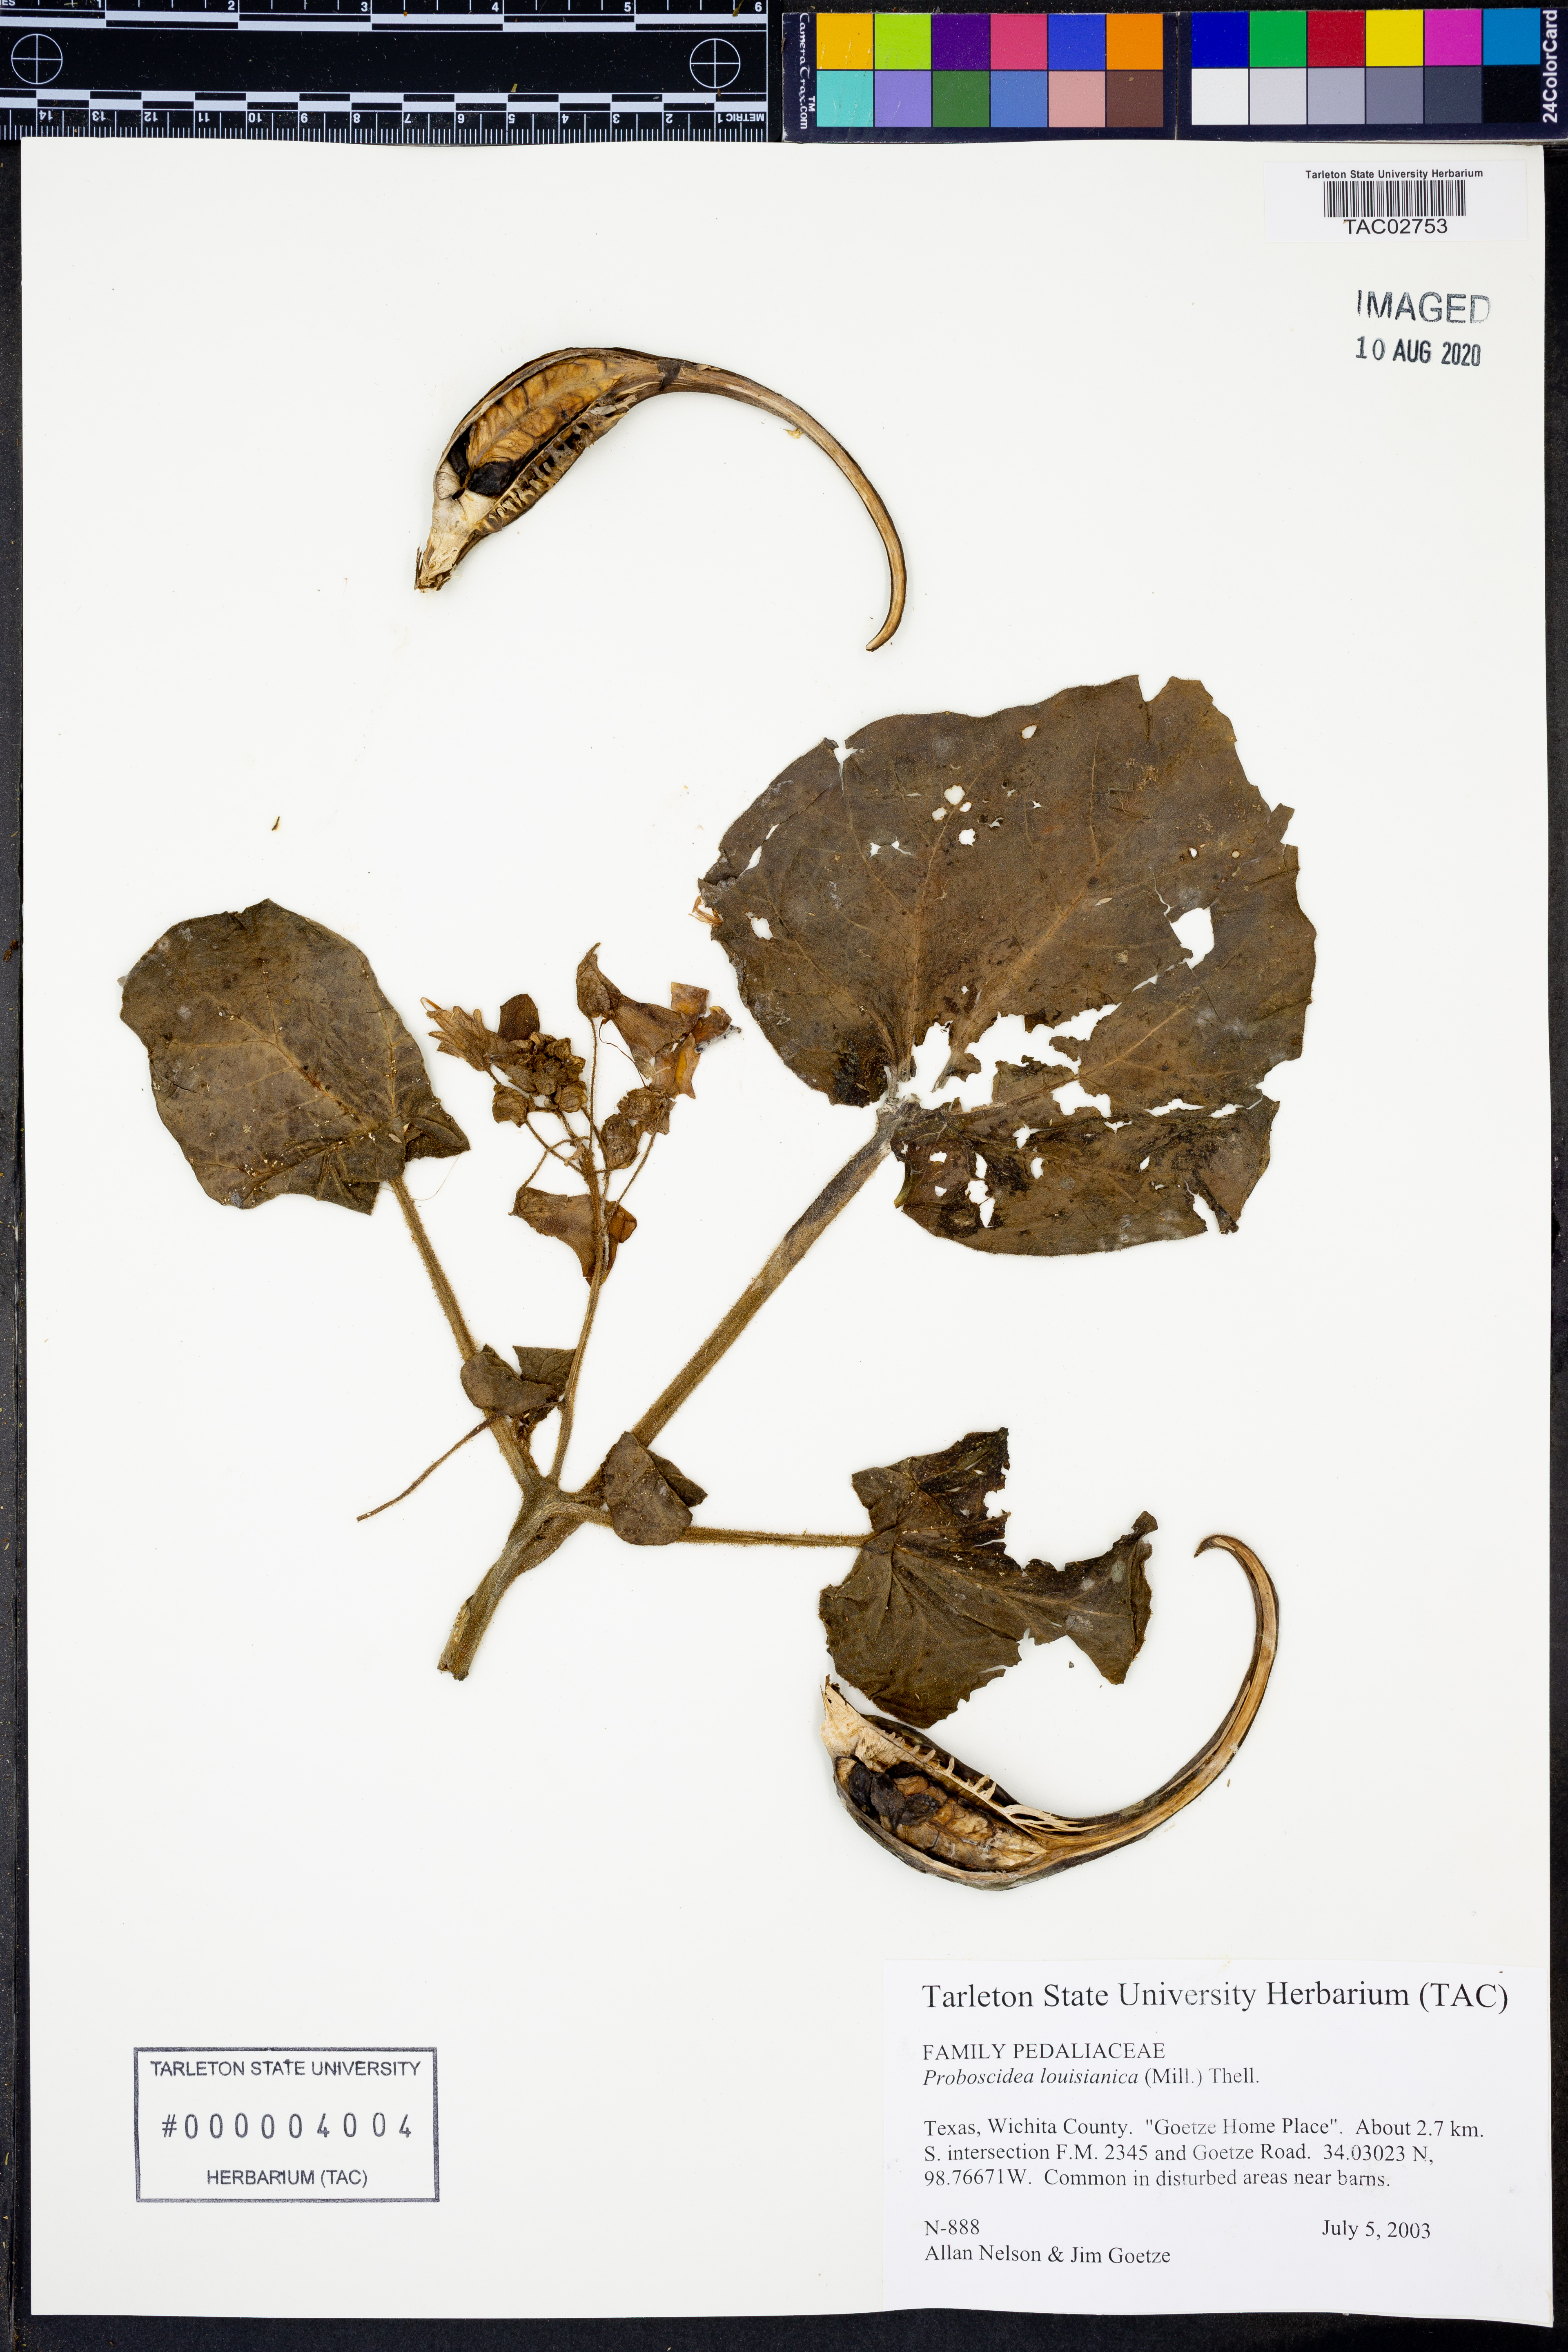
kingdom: Plantae
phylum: Tracheophyta
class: Magnoliopsida
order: Lamiales
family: Martyniaceae
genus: Proboscidea
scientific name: Proboscidea louisianica
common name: Elephant tusks
